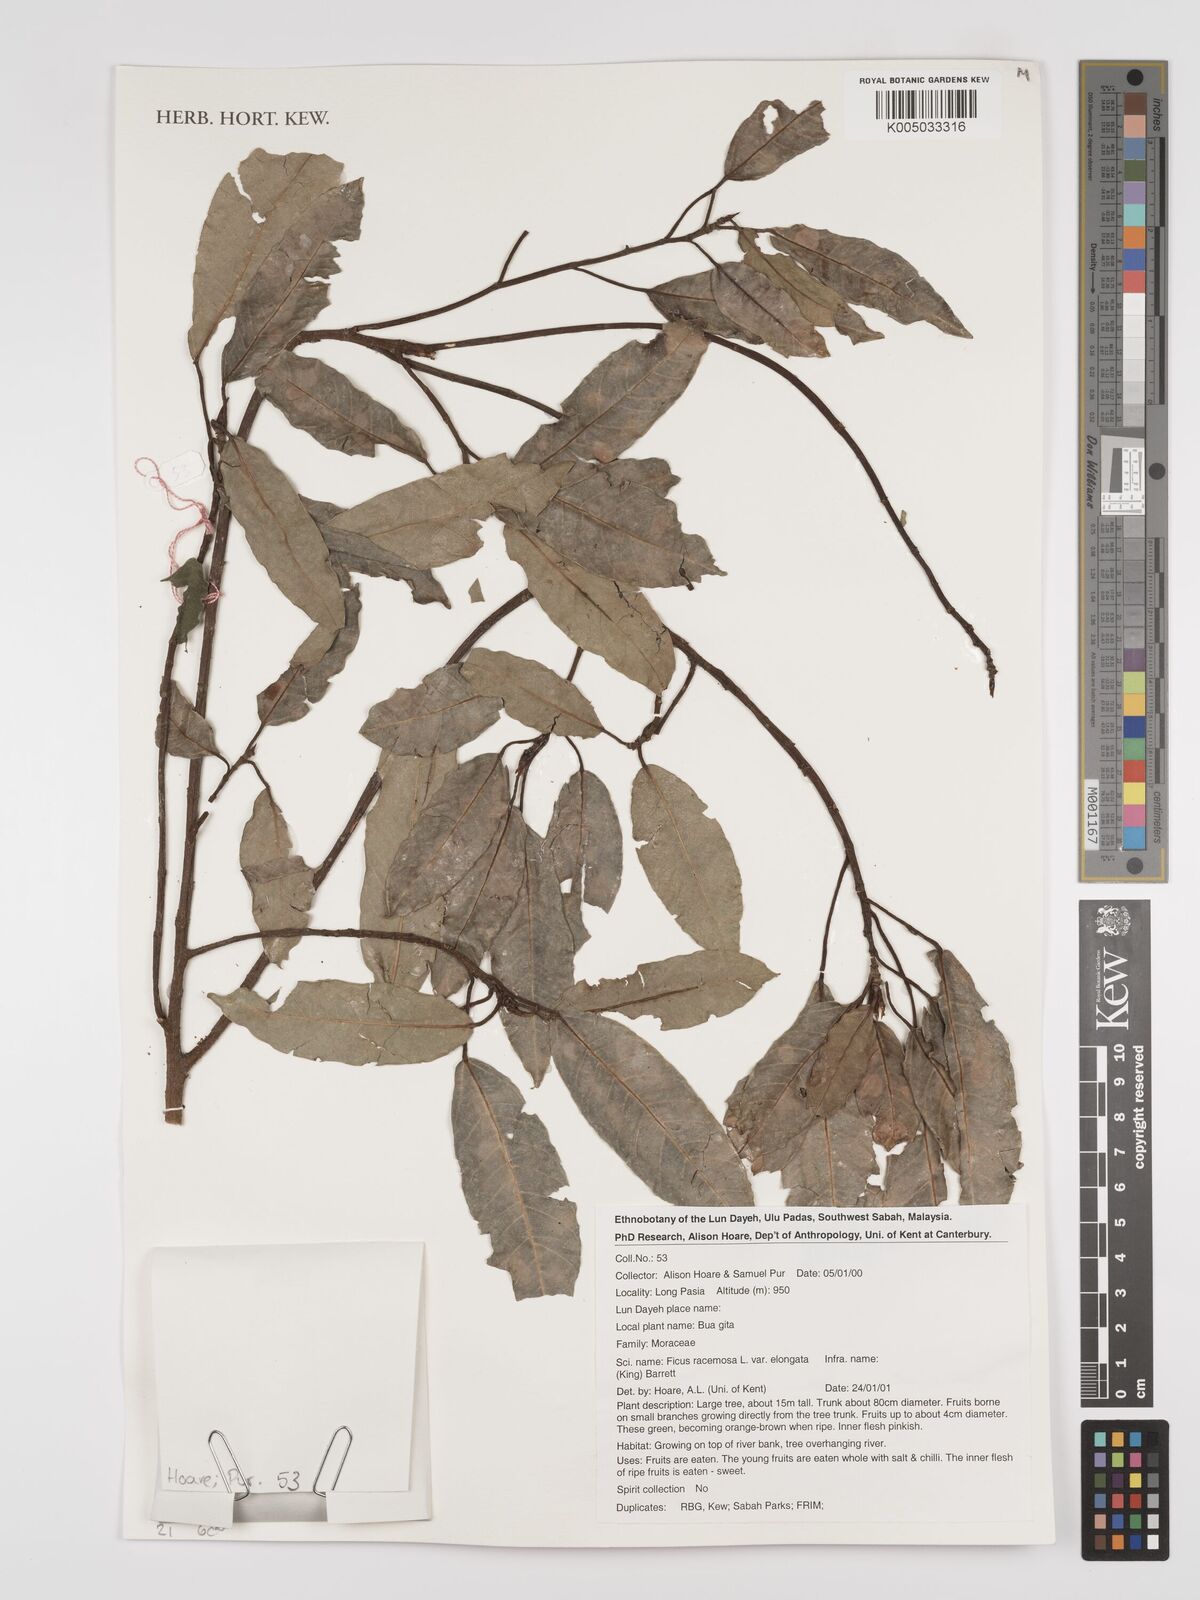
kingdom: Plantae
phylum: Tracheophyta
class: Magnoliopsida
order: Rosales
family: Moraceae
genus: Ficus
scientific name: Ficus
